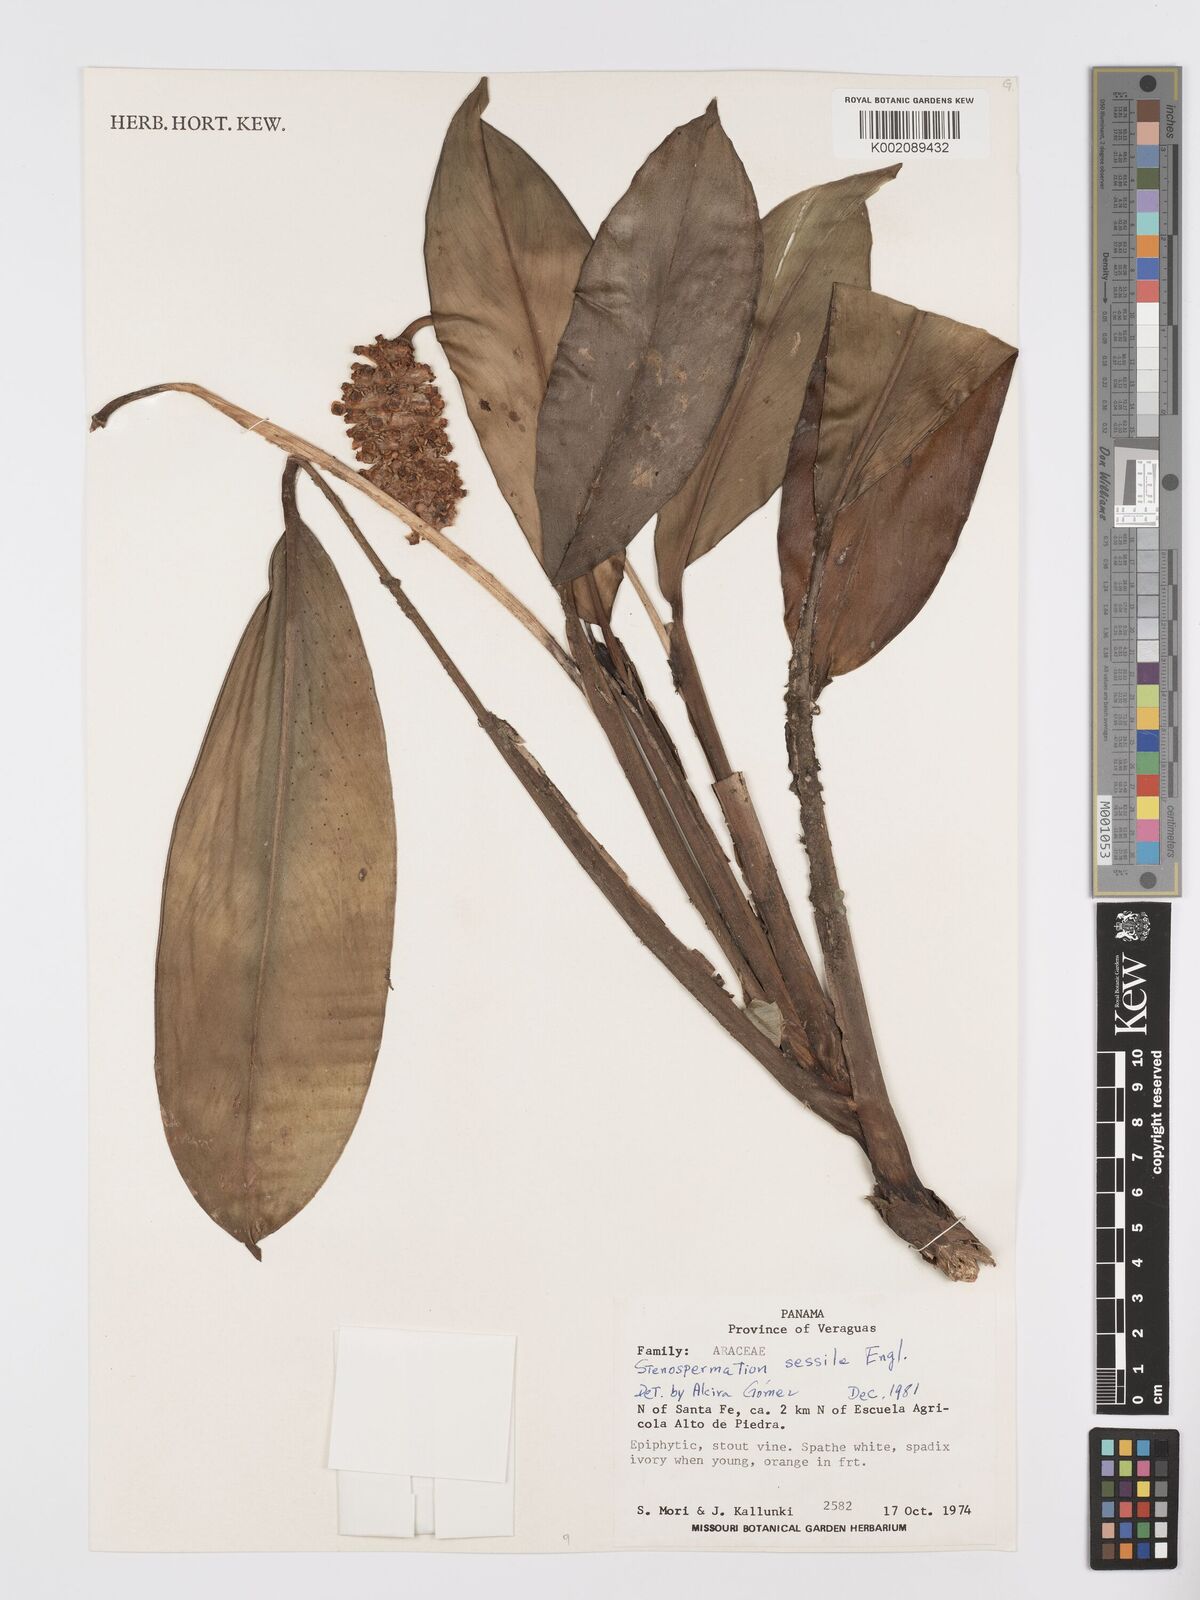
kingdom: Plantae
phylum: Tracheophyta
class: Liliopsida
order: Alismatales
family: Araceae
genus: Stenospermation
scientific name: Stenospermation sessile
